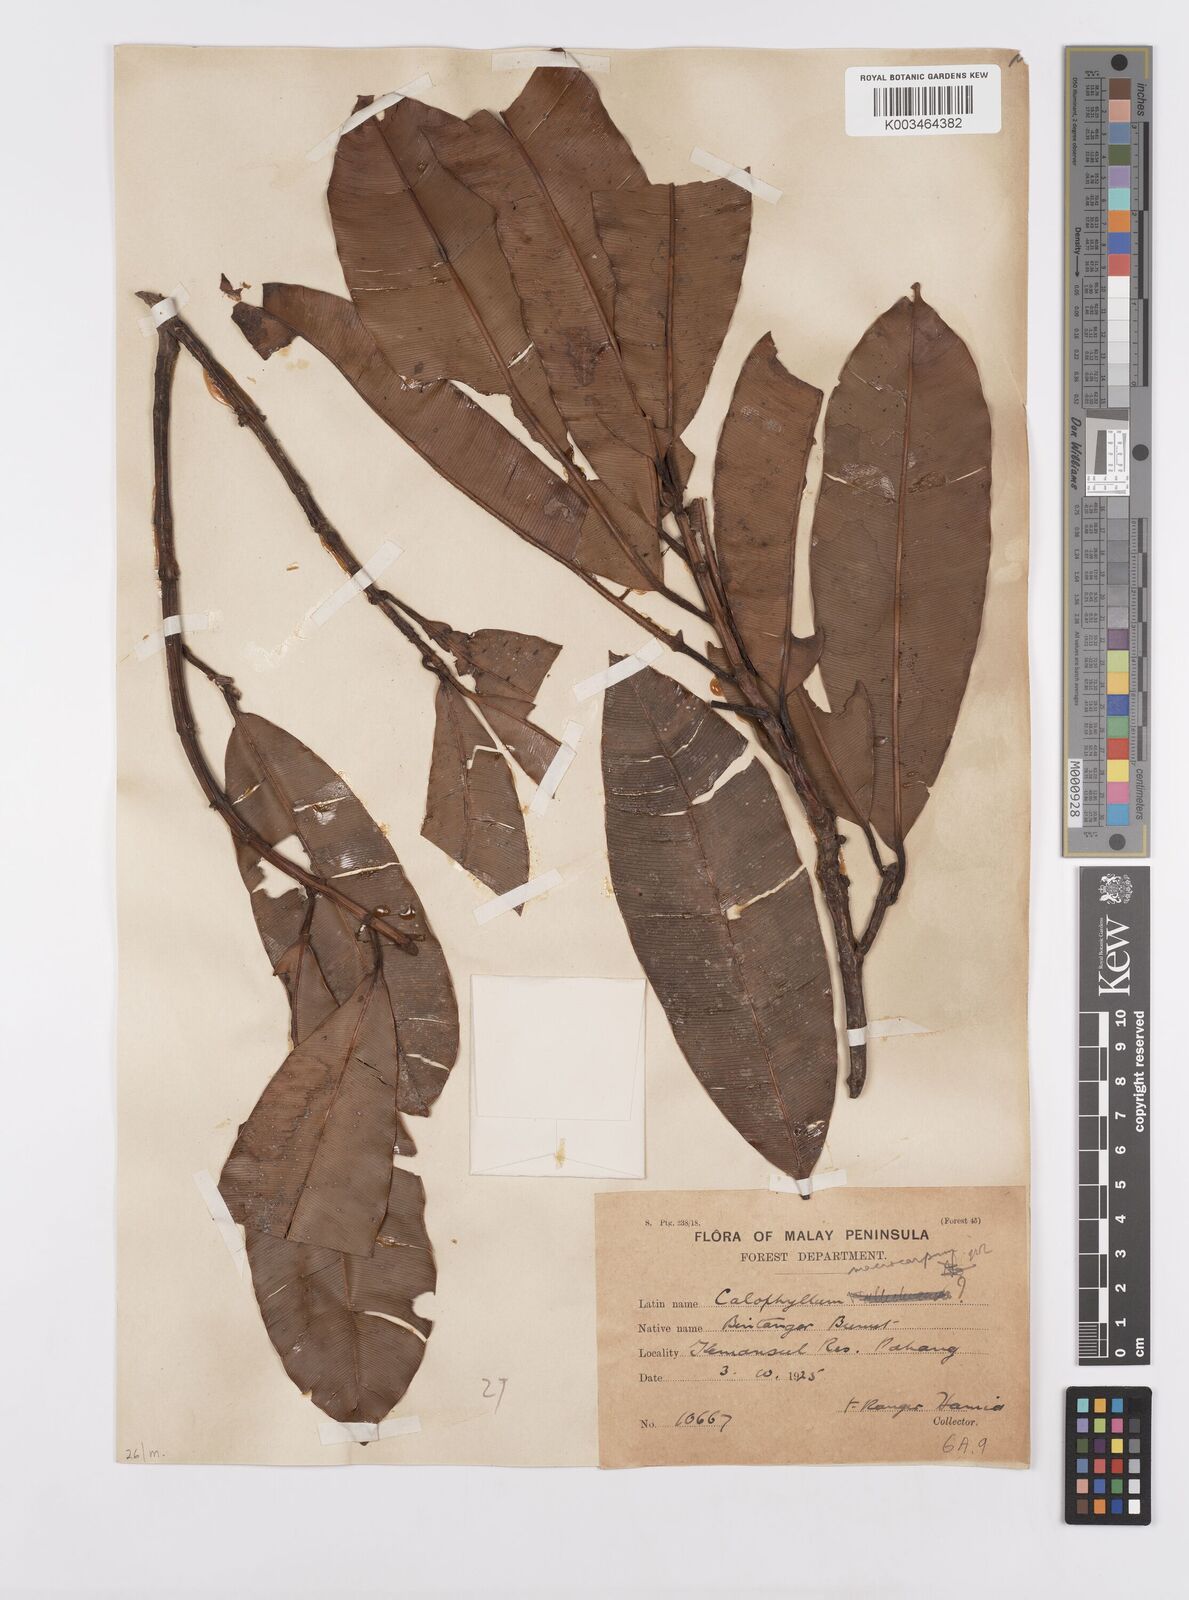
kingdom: Plantae
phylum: Tracheophyta
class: Magnoliopsida
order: Malpighiales
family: Calophyllaceae
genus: Calophyllum
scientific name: Calophyllum macrocarpum
